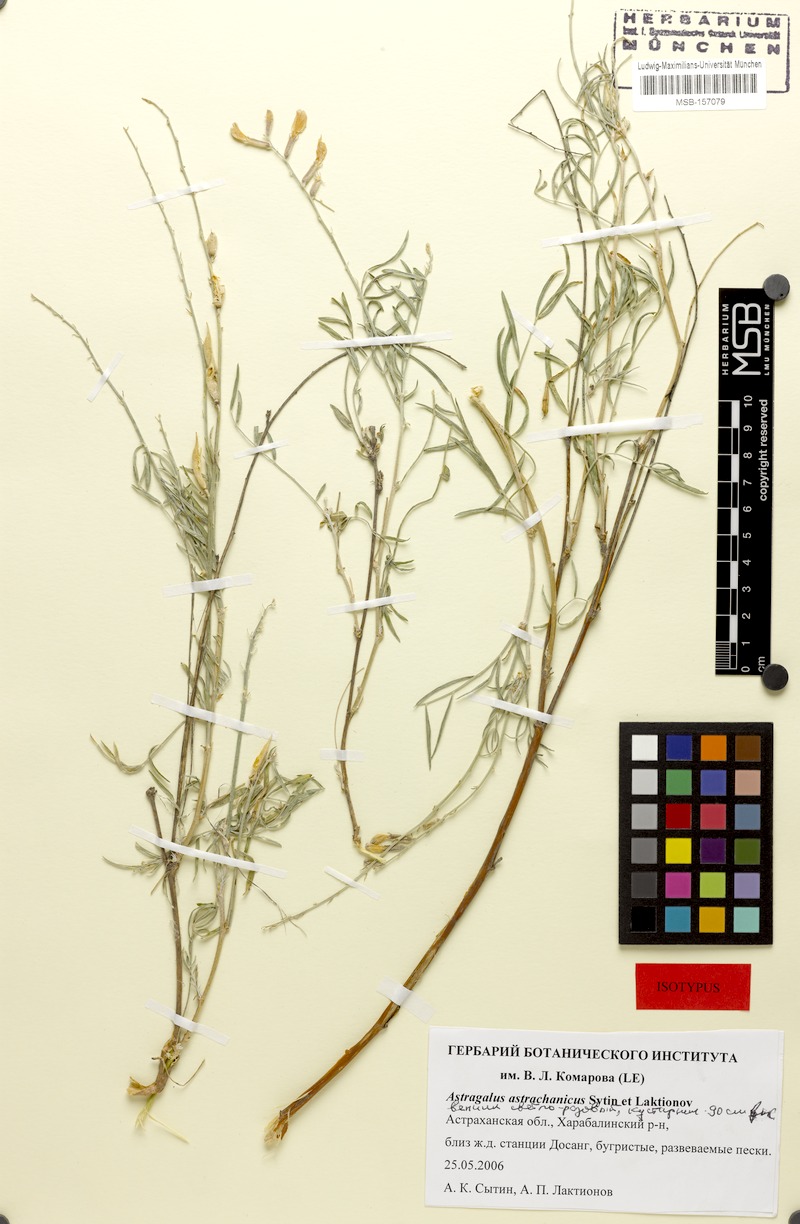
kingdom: Plantae
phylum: Tracheophyta
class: Magnoliopsida
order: Fabales
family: Fabaceae
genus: Astragalus
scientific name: Astragalus astrachanicus
